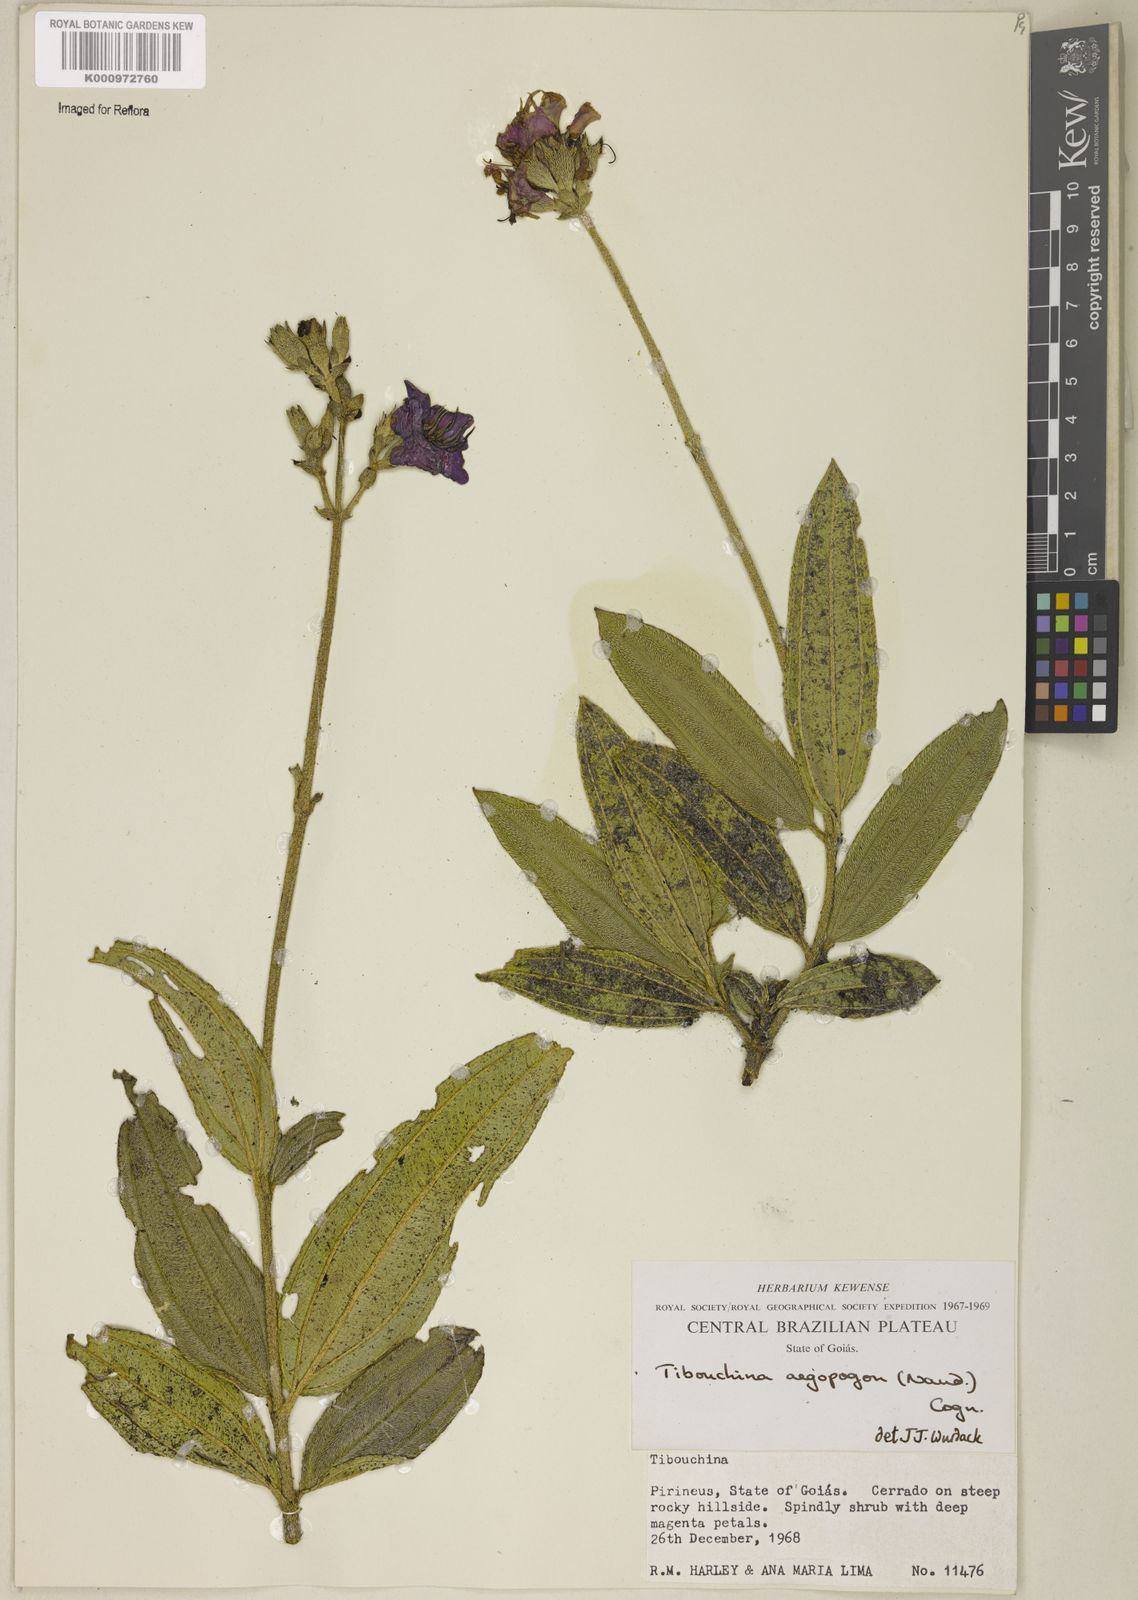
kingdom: Plantae
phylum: Tracheophyta
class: Magnoliopsida
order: Myrtales
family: Melastomataceae
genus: Pleroma
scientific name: Pleroma aegopogon
